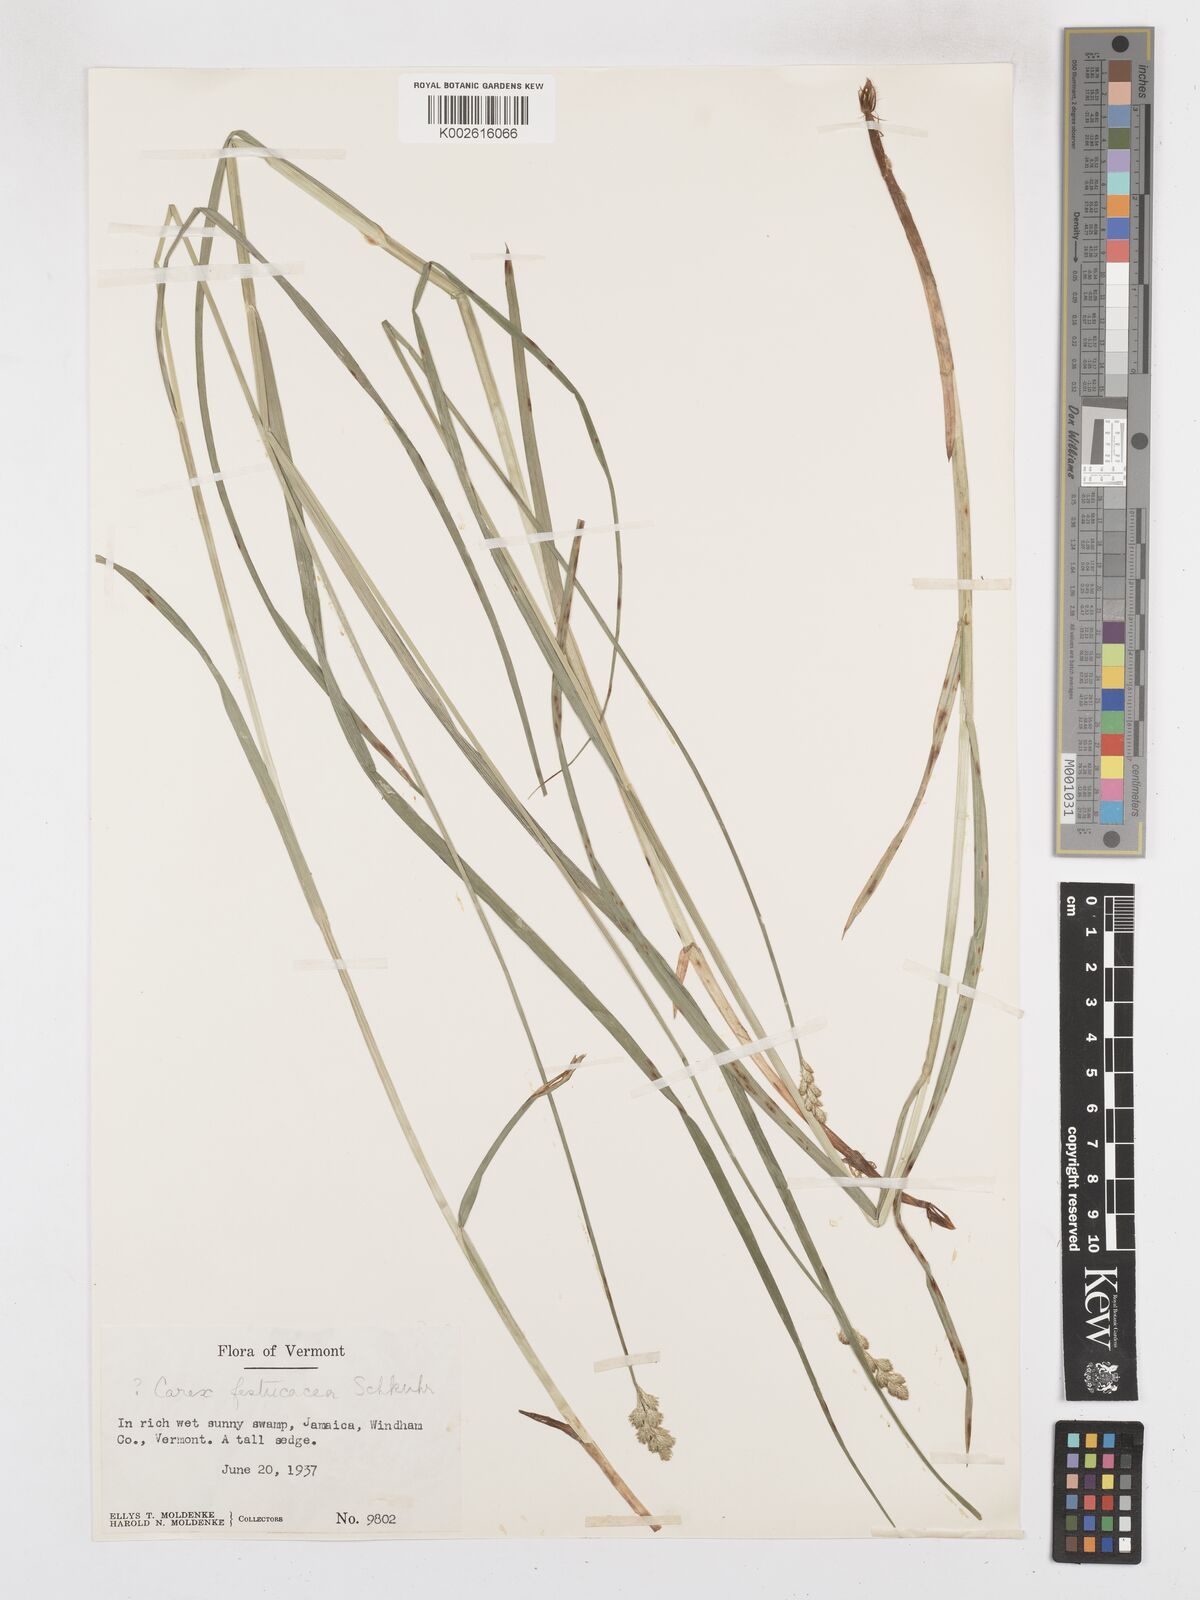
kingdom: Plantae
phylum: Tracheophyta
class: Liliopsida
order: Poales
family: Cyperaceae
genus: Carex
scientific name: Carex festucacea
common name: Fescue oval sedge
